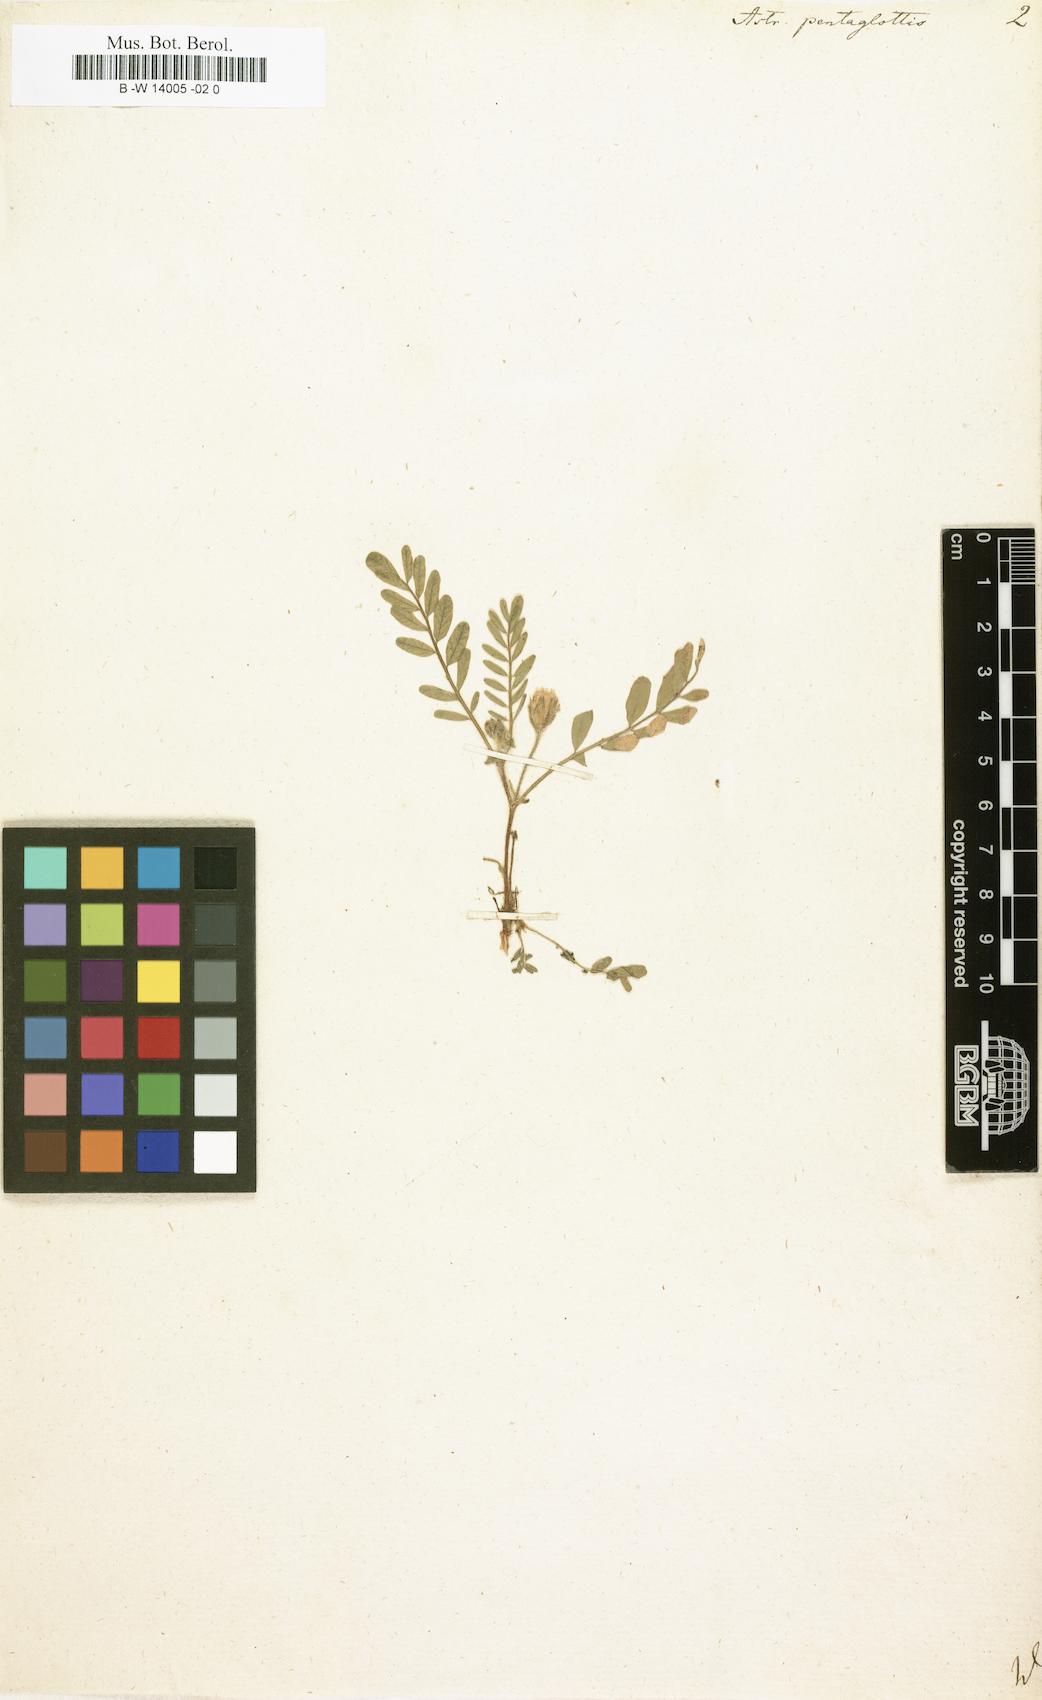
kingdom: Plantae
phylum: Tracheophyta
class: Magnoliopsida
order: Fabales
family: Fabaceae
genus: Astragalus
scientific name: Astragalus echinatus
